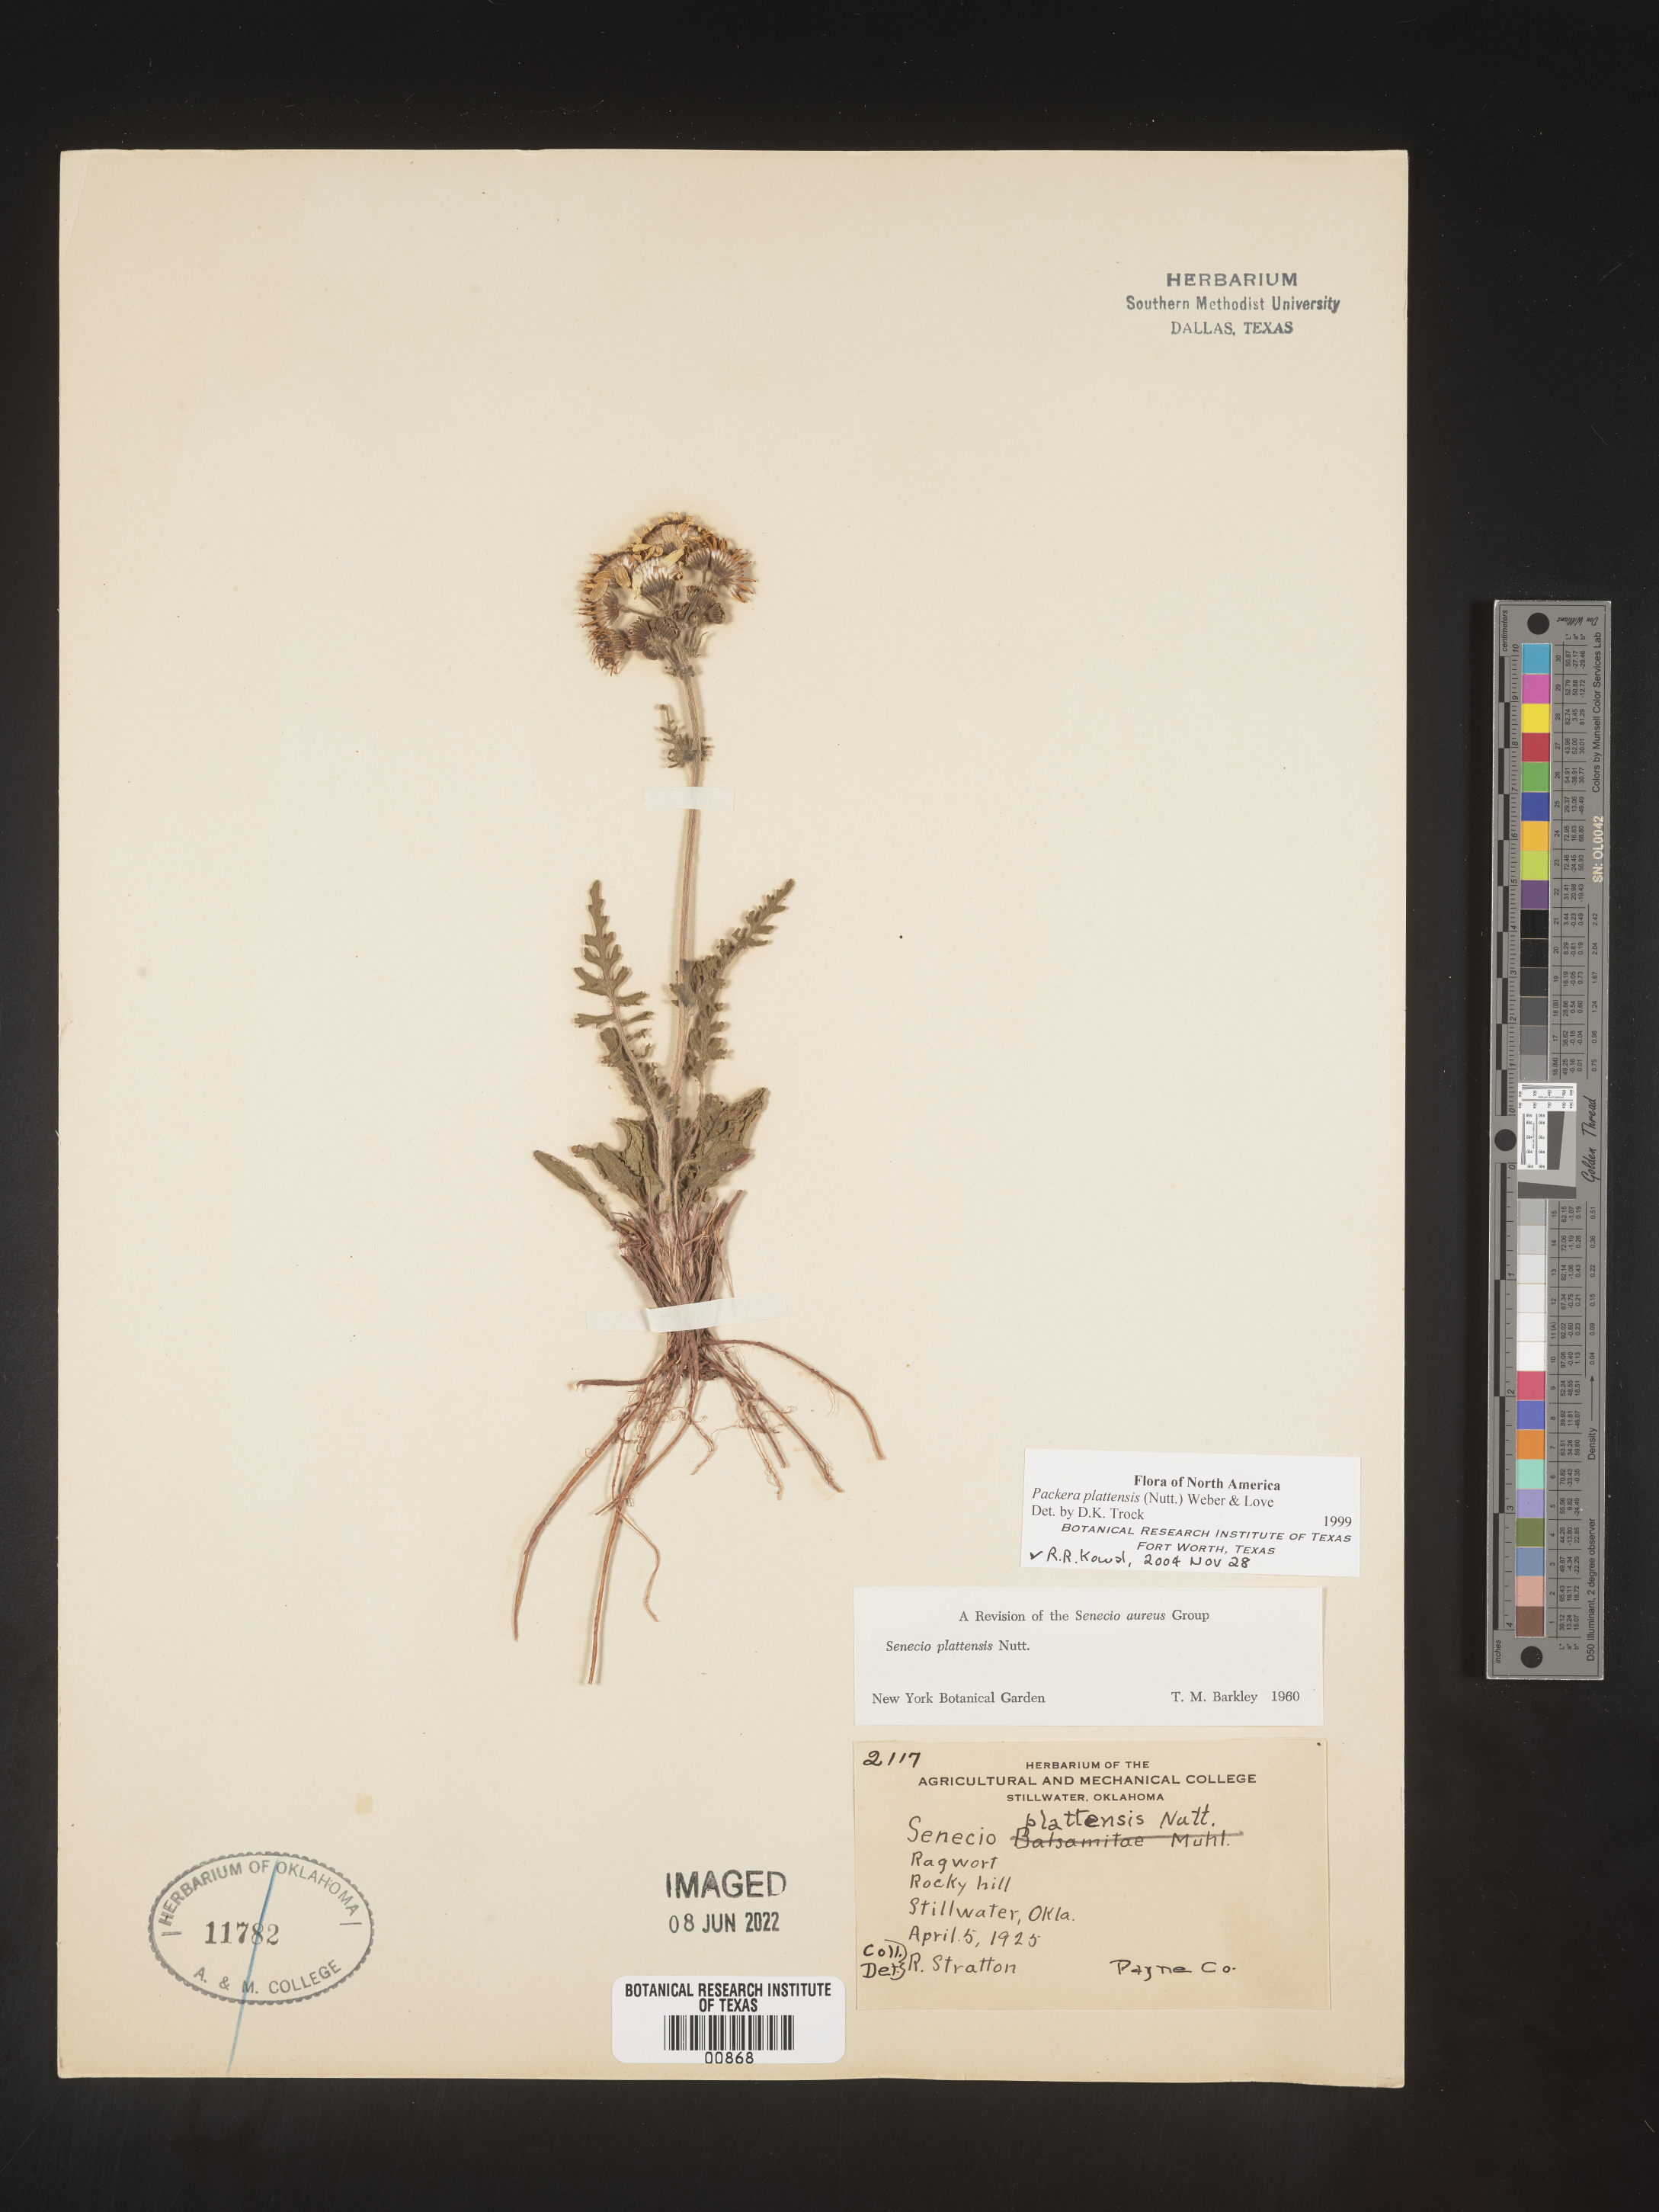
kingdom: Plantae
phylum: Tracheophyta
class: Magnoliopsida
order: Asterales
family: Asteraceae
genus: Packera
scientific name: Packera plattensis
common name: Prairie groundsel
